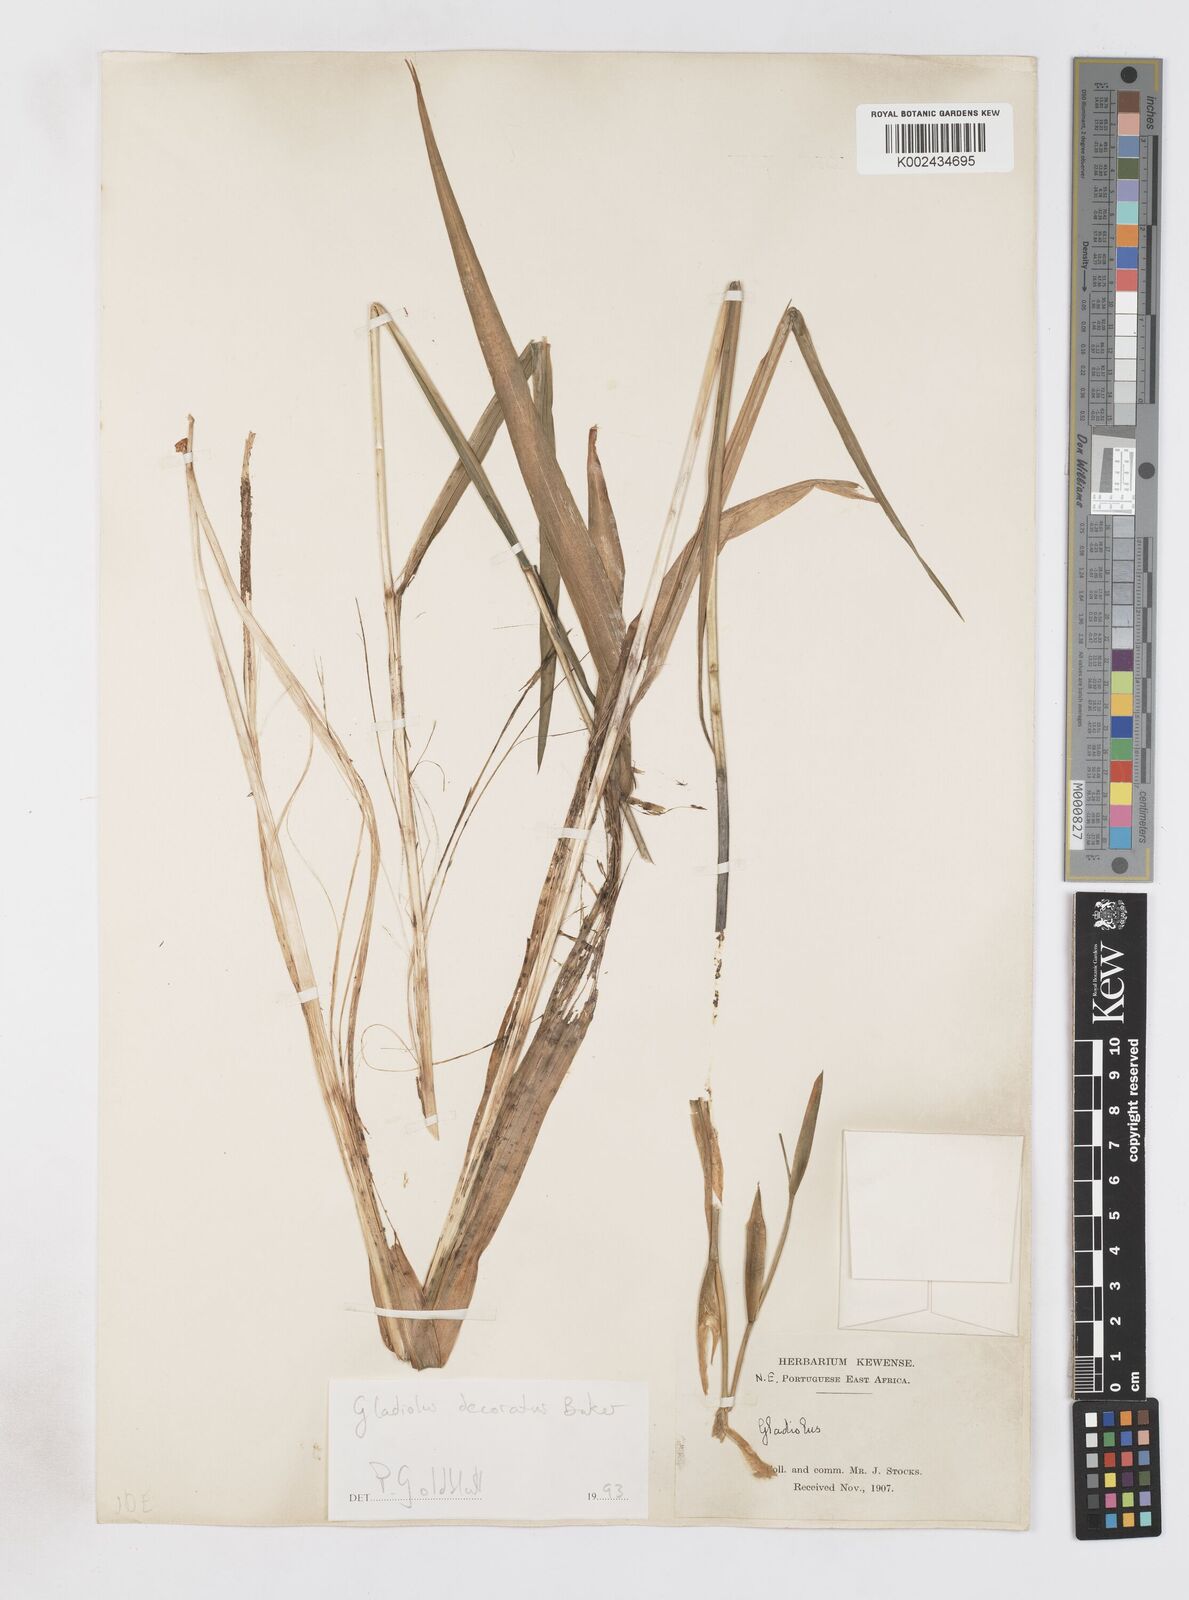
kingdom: Plantae
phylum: Tracheophyta
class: Liliopsida
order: Asparagales
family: Iridaceae
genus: Gladiolus
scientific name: Gladiolus decoratus
